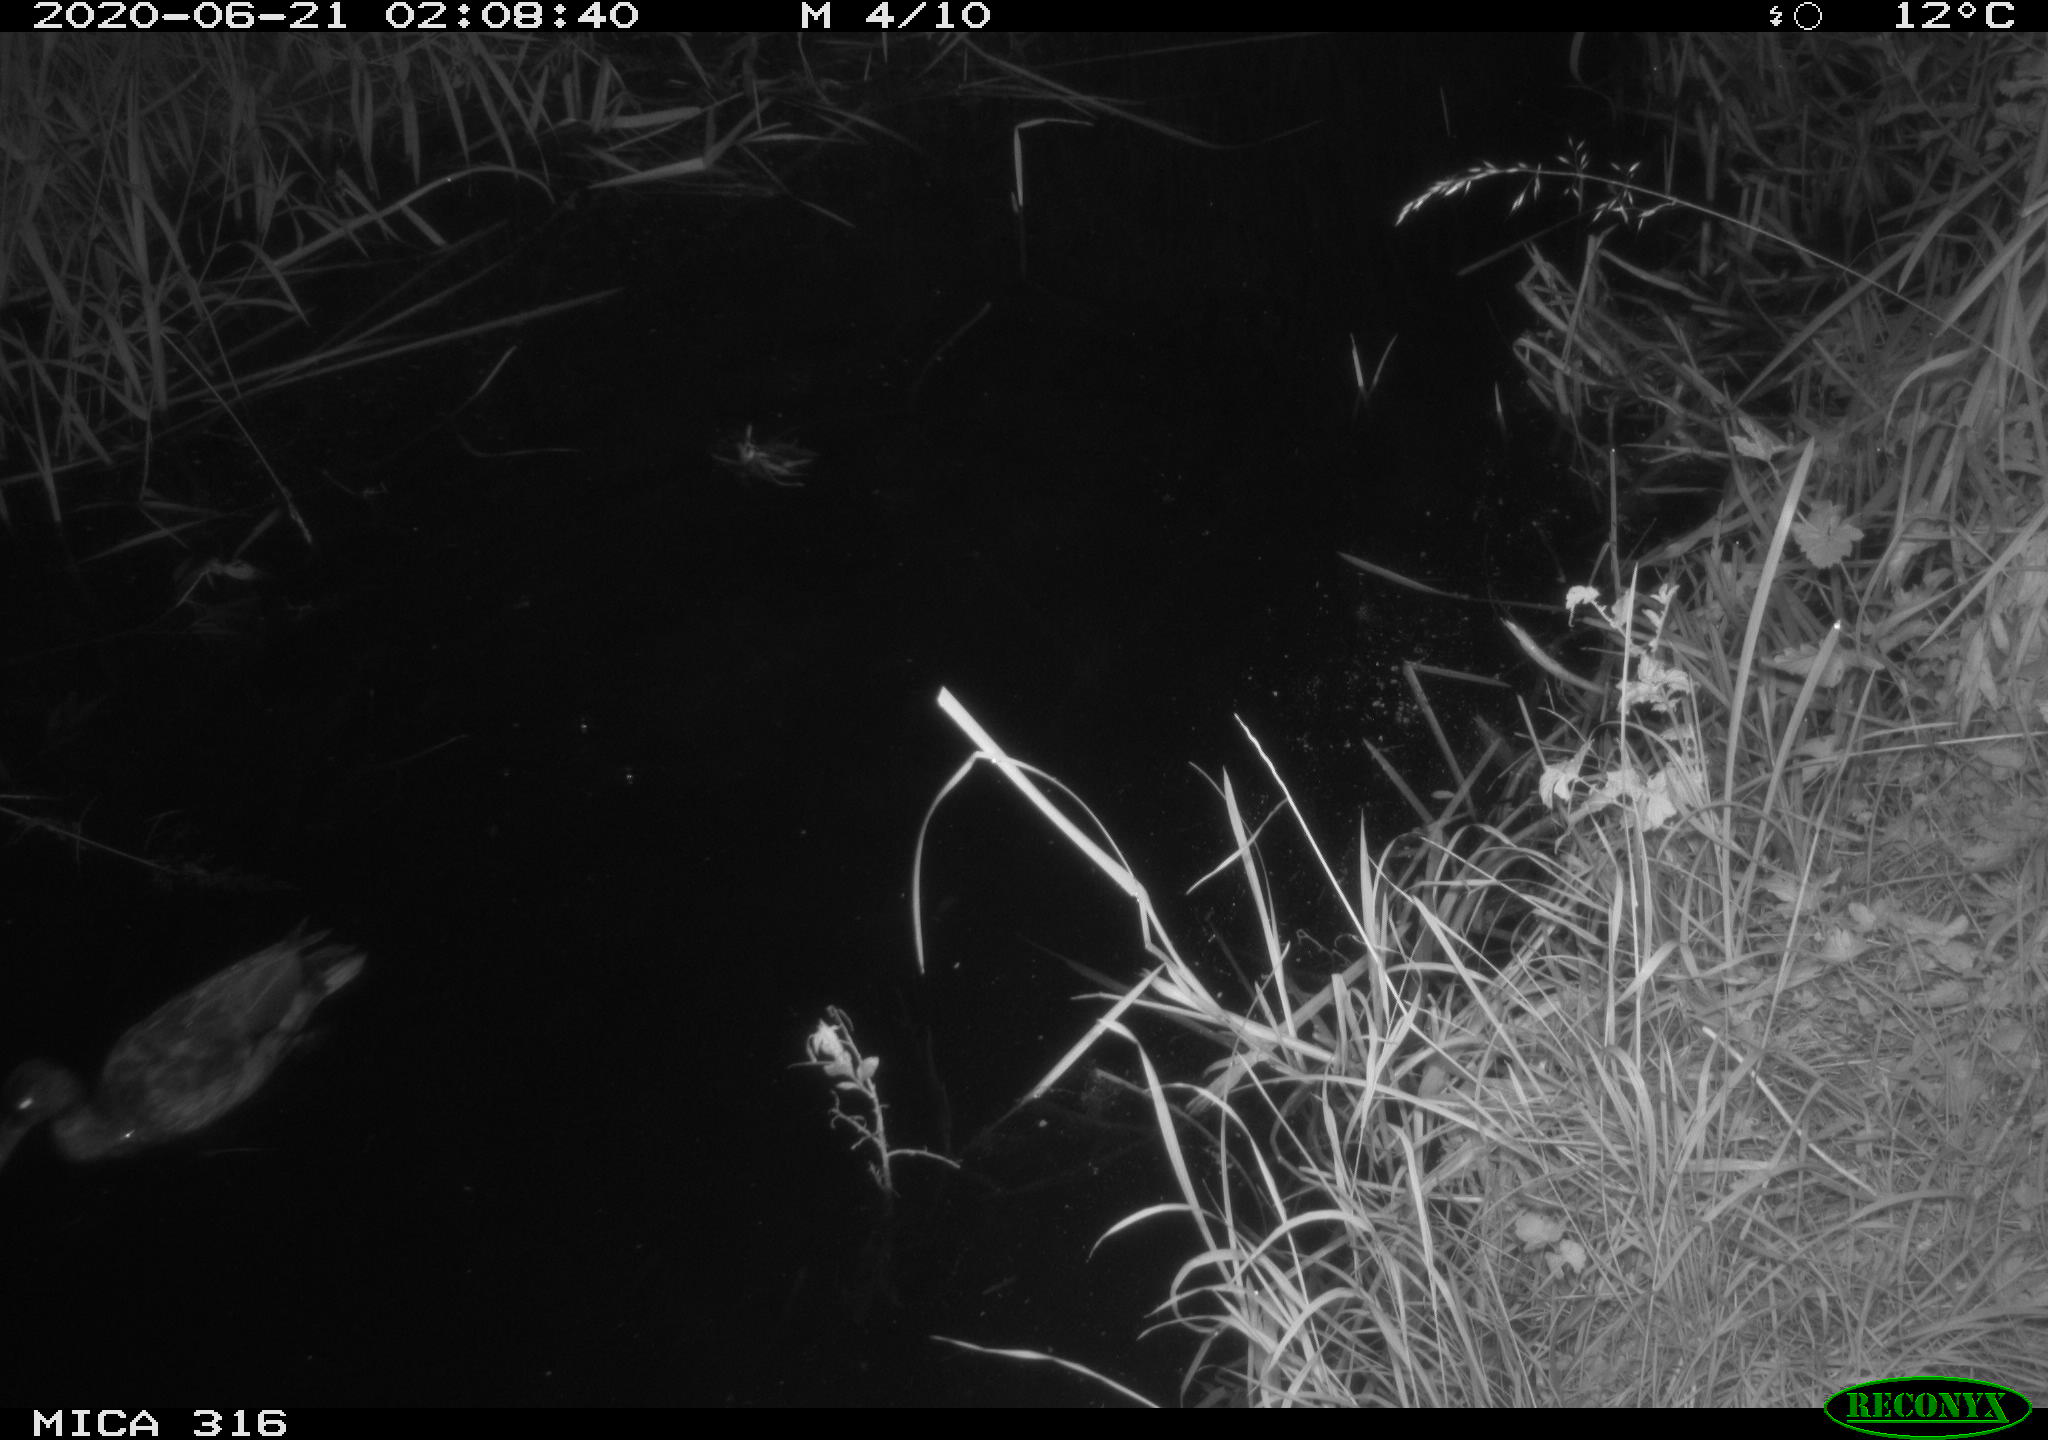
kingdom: Animalia
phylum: Chordata
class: Aves
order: Anseriformes
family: Anatidae
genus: Anas
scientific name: Anas platyrhynchos
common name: Mallard
